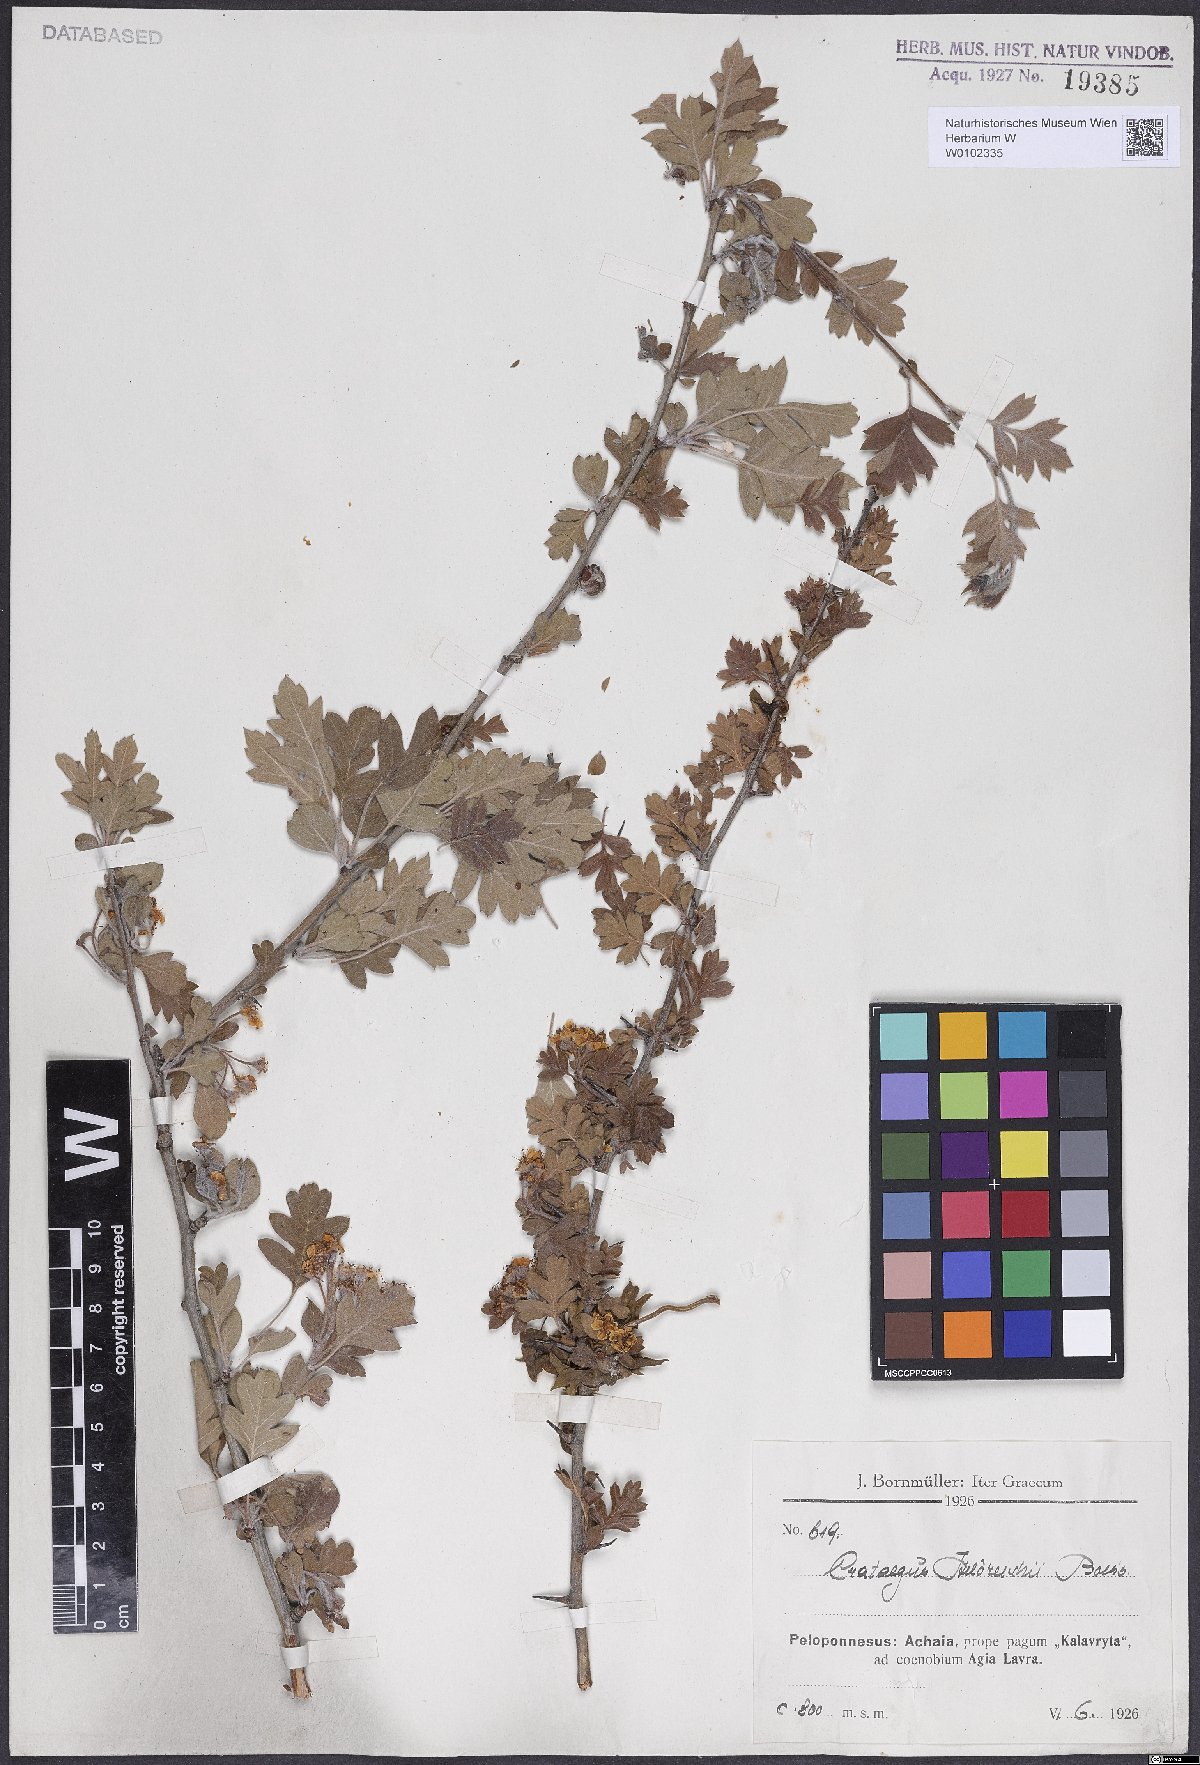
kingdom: Plantae
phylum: Tracheophyta
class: Magnoliopsida
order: Rosales
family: Rosaceae
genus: Crataegus
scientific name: Crataegus heldreichii
